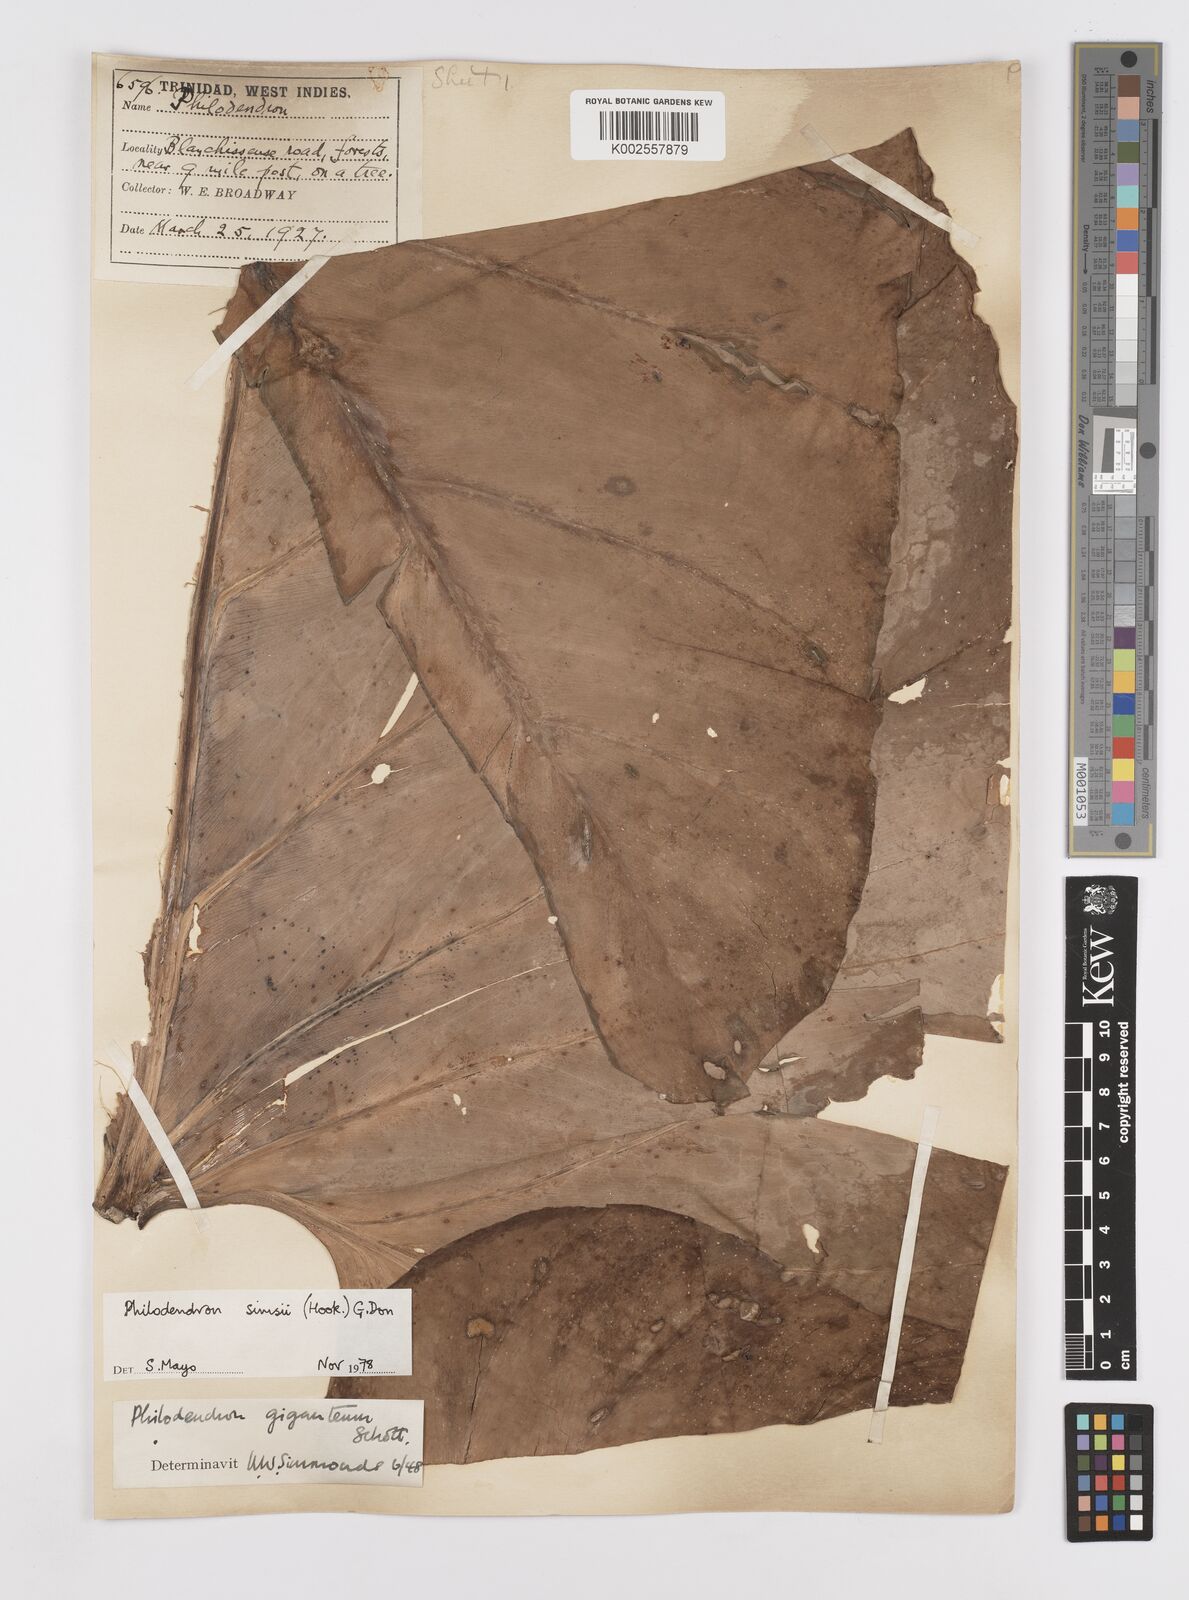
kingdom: Plantae
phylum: Tracheophyta
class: Liliopsida
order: Alismatales
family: Araceae
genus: Philodendron
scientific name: Philodendron
